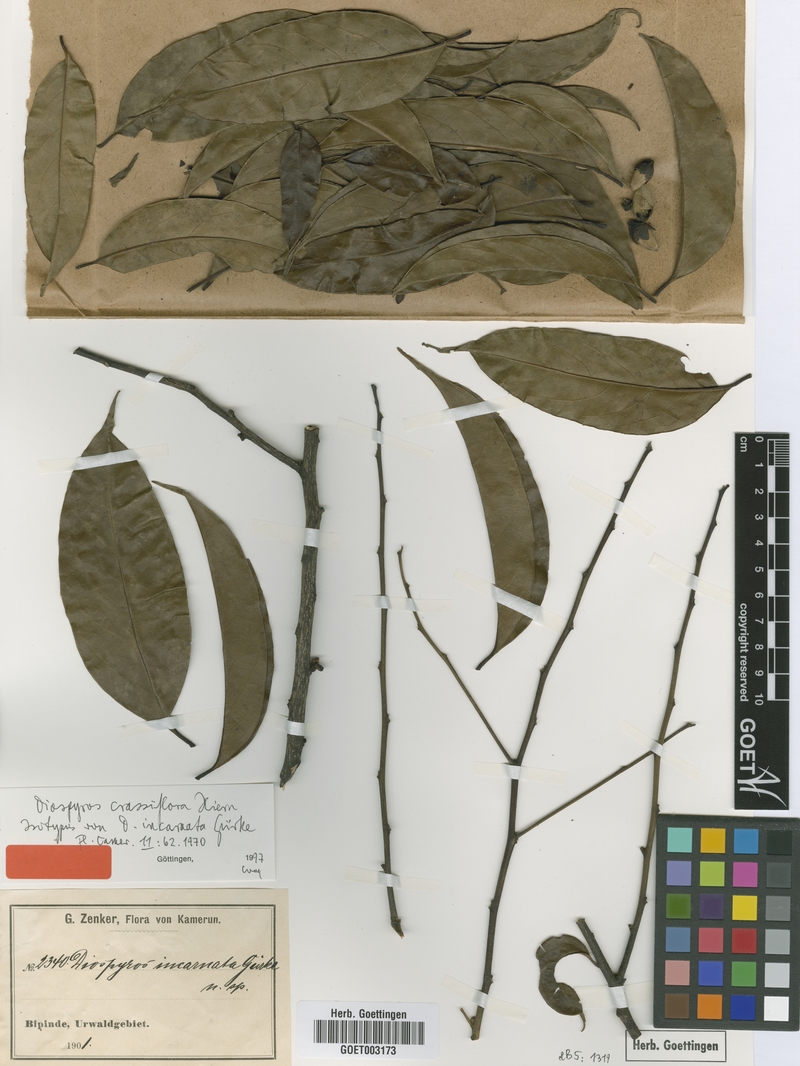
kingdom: Plantae
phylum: Tracheophyta
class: Magnoliopsida
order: Ericales
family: Ebenaceae
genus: Diospyros
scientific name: Diospyros crassiflora
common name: Ebony
